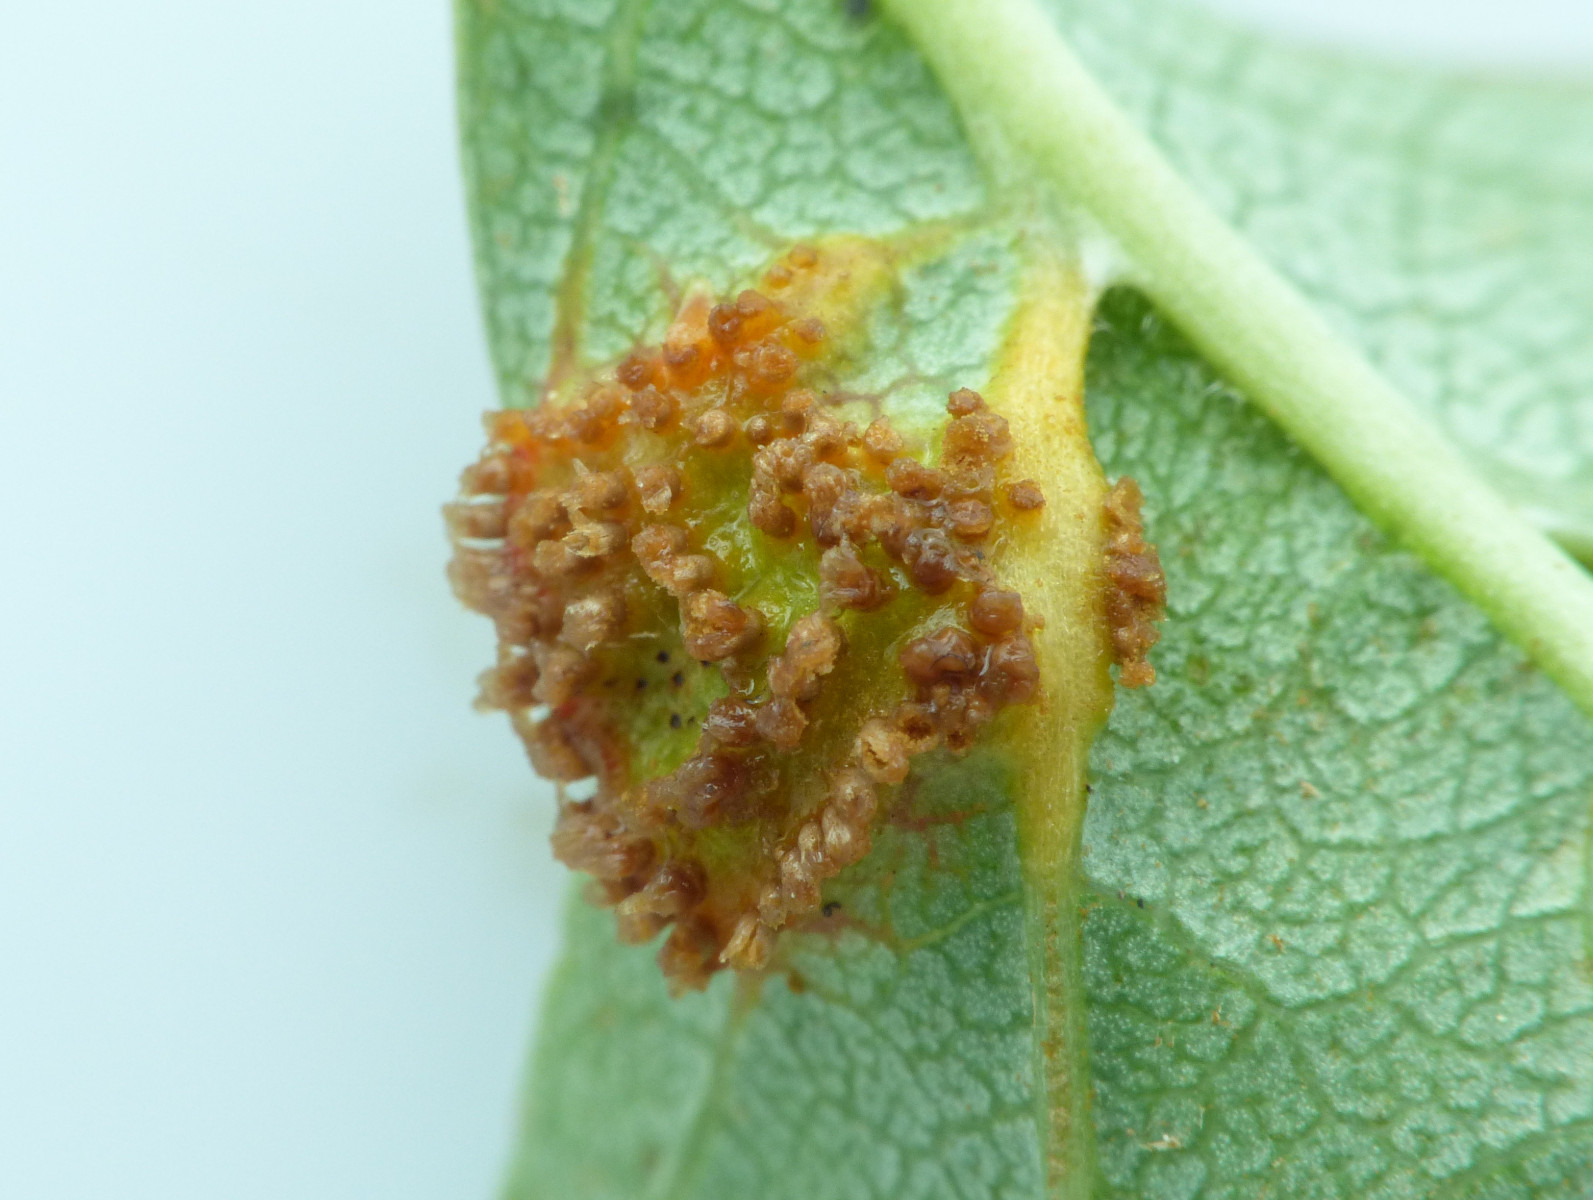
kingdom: Fungi
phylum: Basidiomycota
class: Pucciniomycetes
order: Pucciniales
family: Gymnosporangiaceae
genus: Gymnosporangium
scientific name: Gymnosporangium clavariiforme
